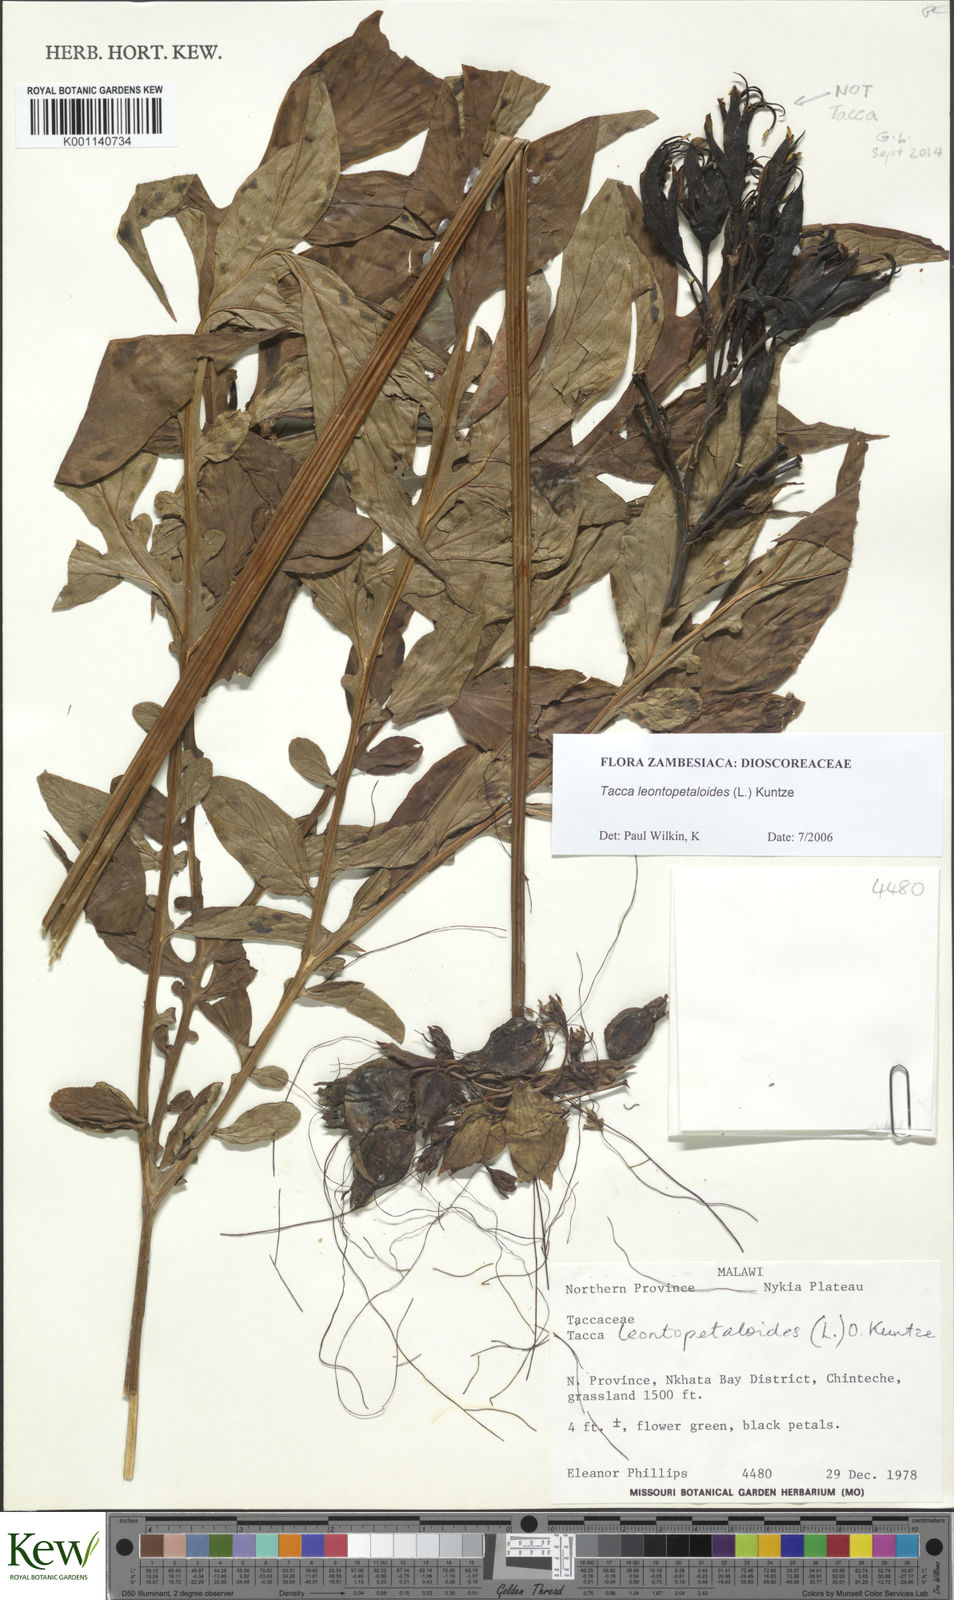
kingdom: Plantae
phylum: Tracheophyta
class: Liliopsida
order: Dioscoreales
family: Dioscoreaceae
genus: Tacca
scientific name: Tacca leontopetaloides
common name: Arrowroot
